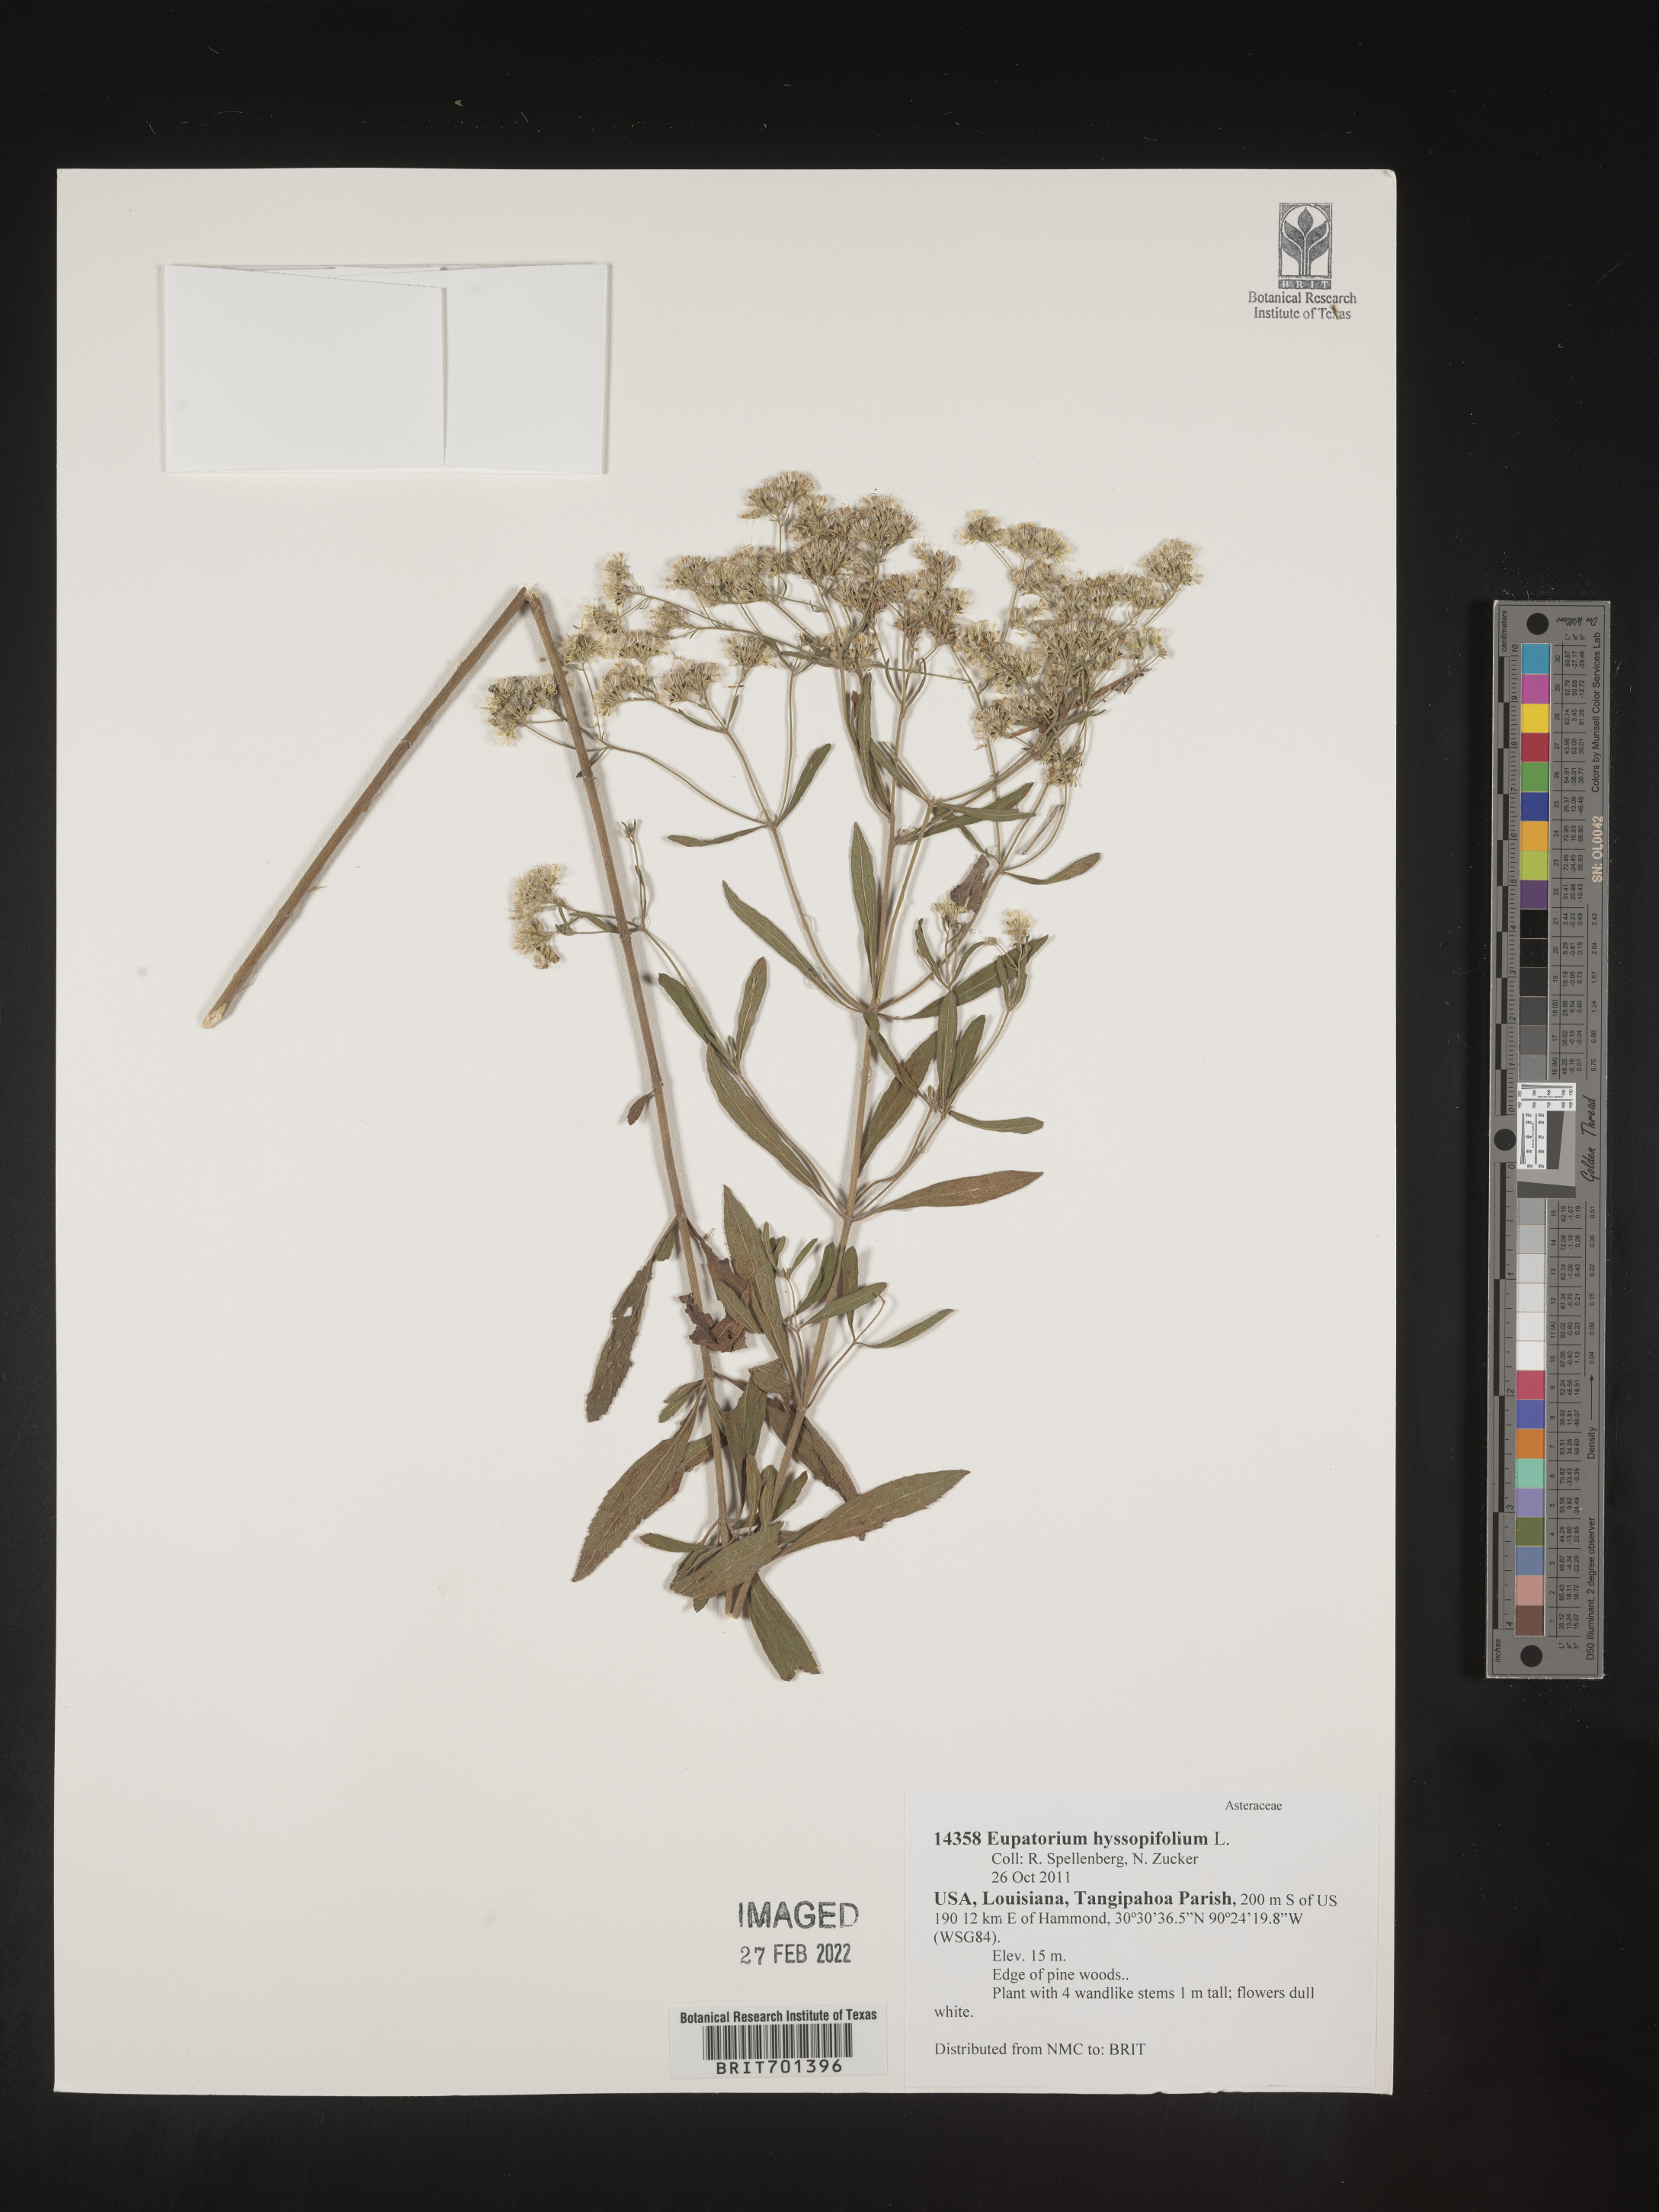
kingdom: Plantae
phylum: Tracheophyta
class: Magnoliopsida
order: Asterales
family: Asteraceae
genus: Eupatorium
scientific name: Eupatorium hyssopifolium
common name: Hyssop-leaf thoroughwort
